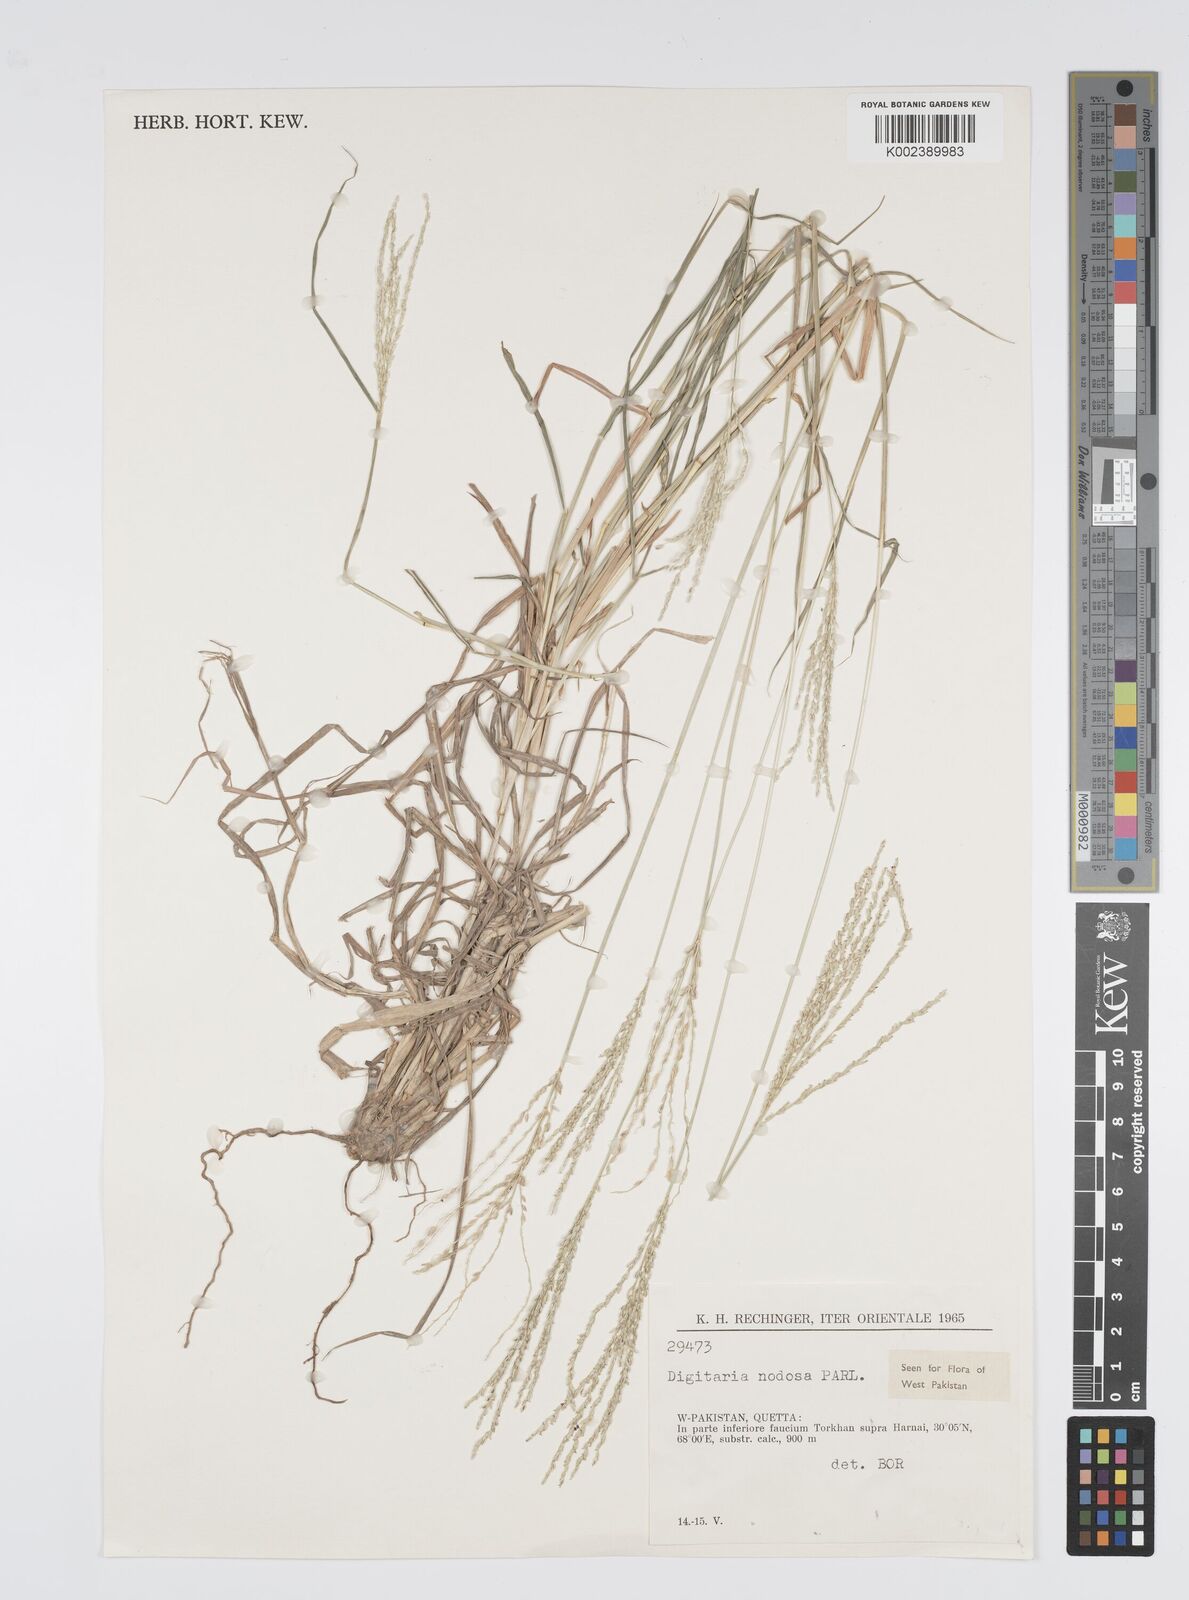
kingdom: Plantae
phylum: Tracheophyta
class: Liliopsida
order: Poales
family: Poaceae
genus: Digitaria
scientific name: Digitaria nodosa
